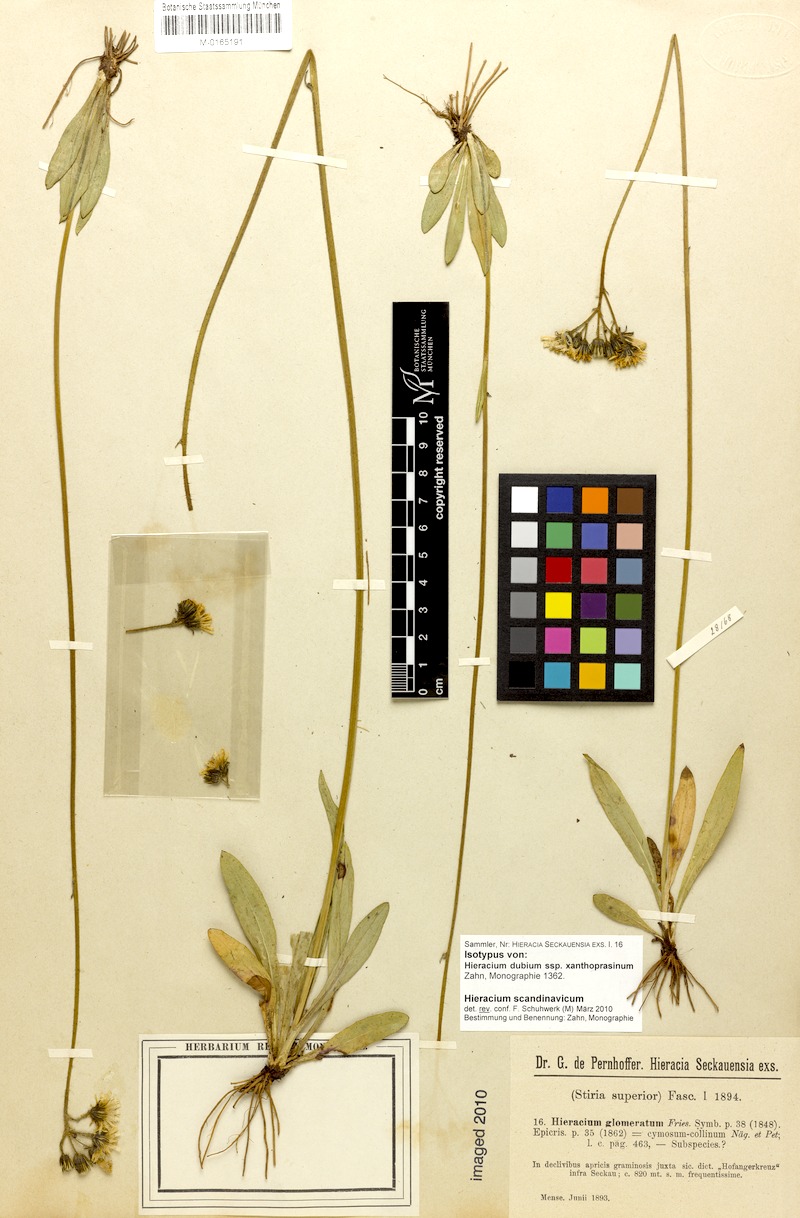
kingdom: Plantae
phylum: Tracheophyta
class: Magnoliopsida
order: Asterales
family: Asteraceae
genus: Pilosella
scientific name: Pilosella scandinavica
